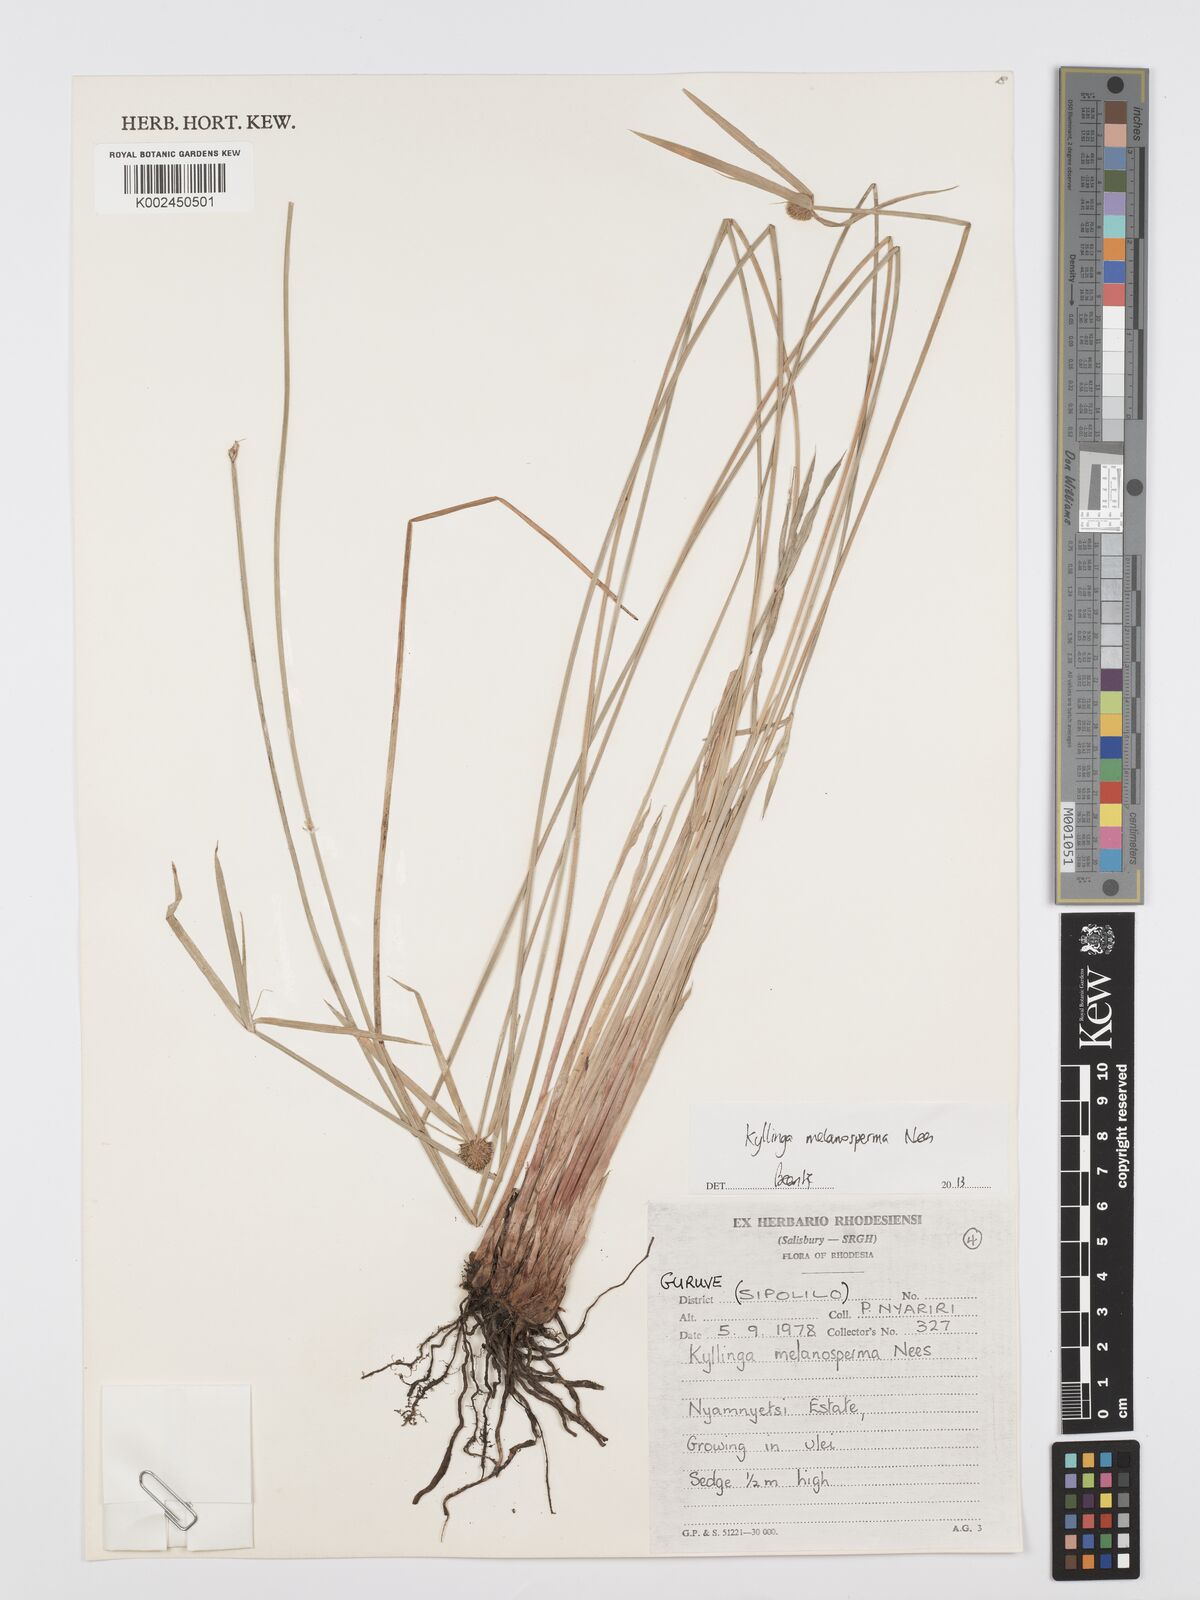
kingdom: Plantae
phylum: Tracheophyta
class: Liliopsida
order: Poales
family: Cyperaceae
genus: Cyperus
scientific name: Cyperus melanospermus
